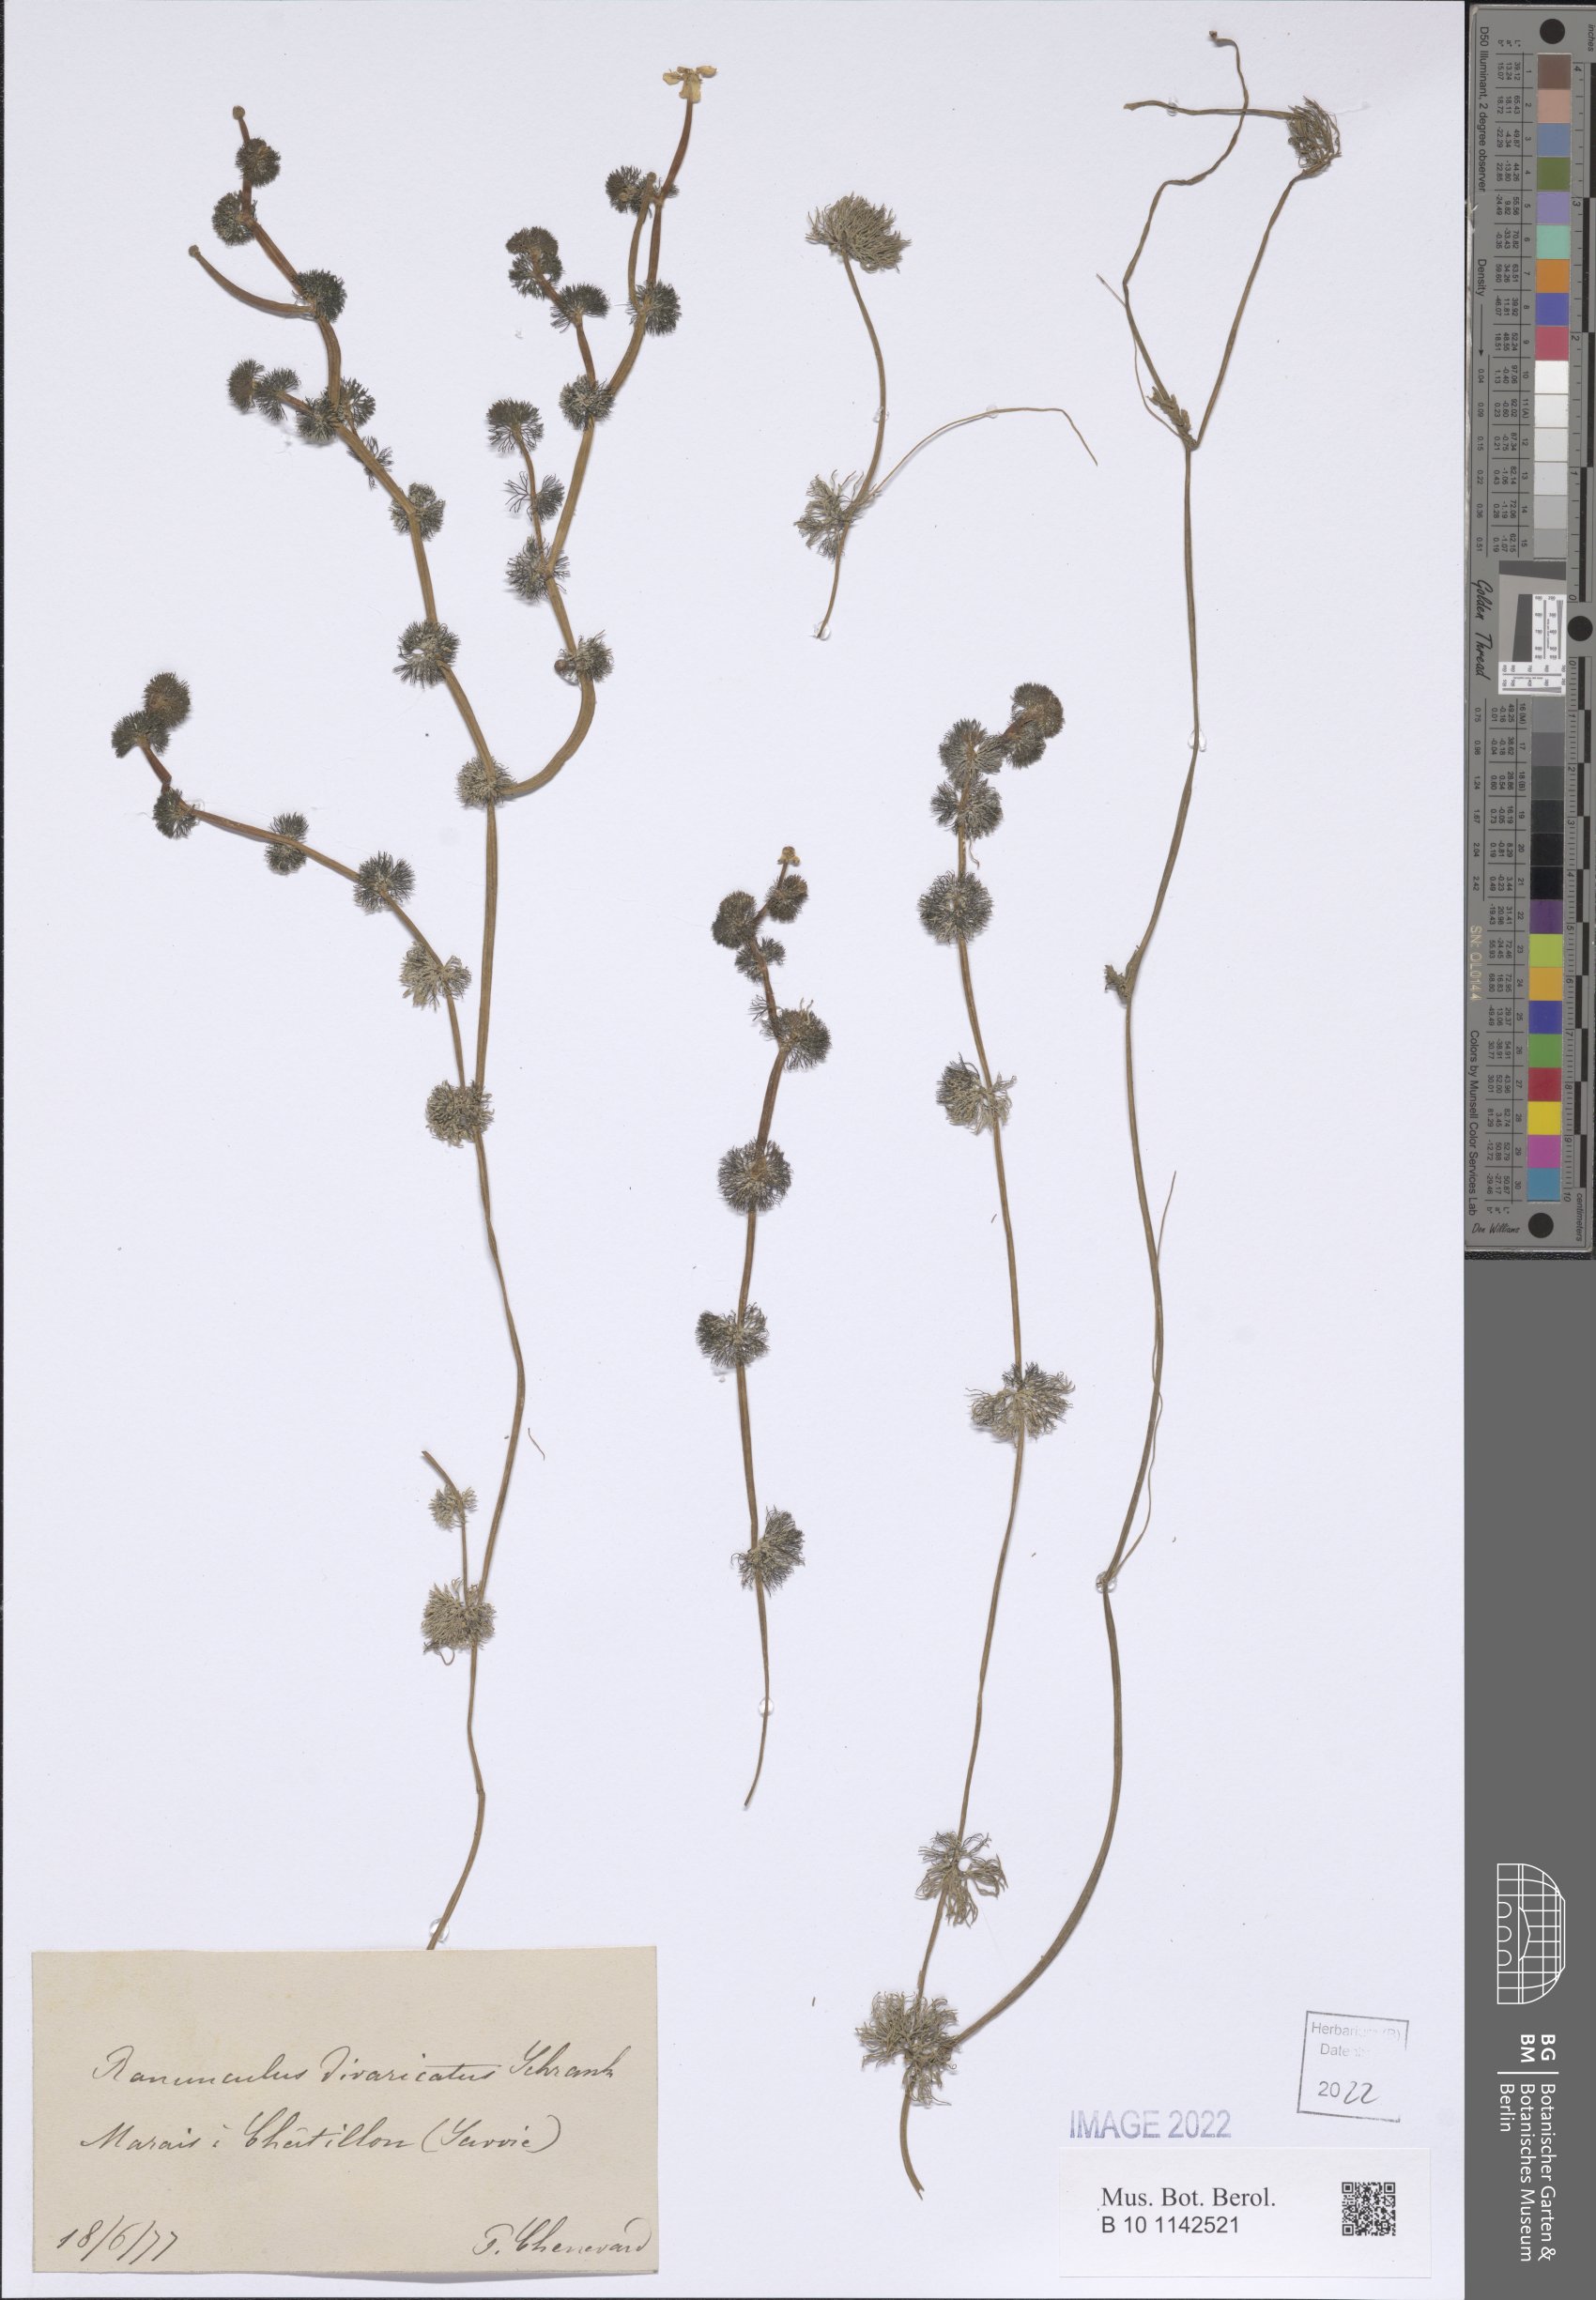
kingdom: Plantae
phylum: Tracheophyta
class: Magnoliopsida
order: Ranunculales
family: Ranunculaceae
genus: Ranunculus
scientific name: Ranunculus circinatus
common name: Fan-leaved water-crowfoot
